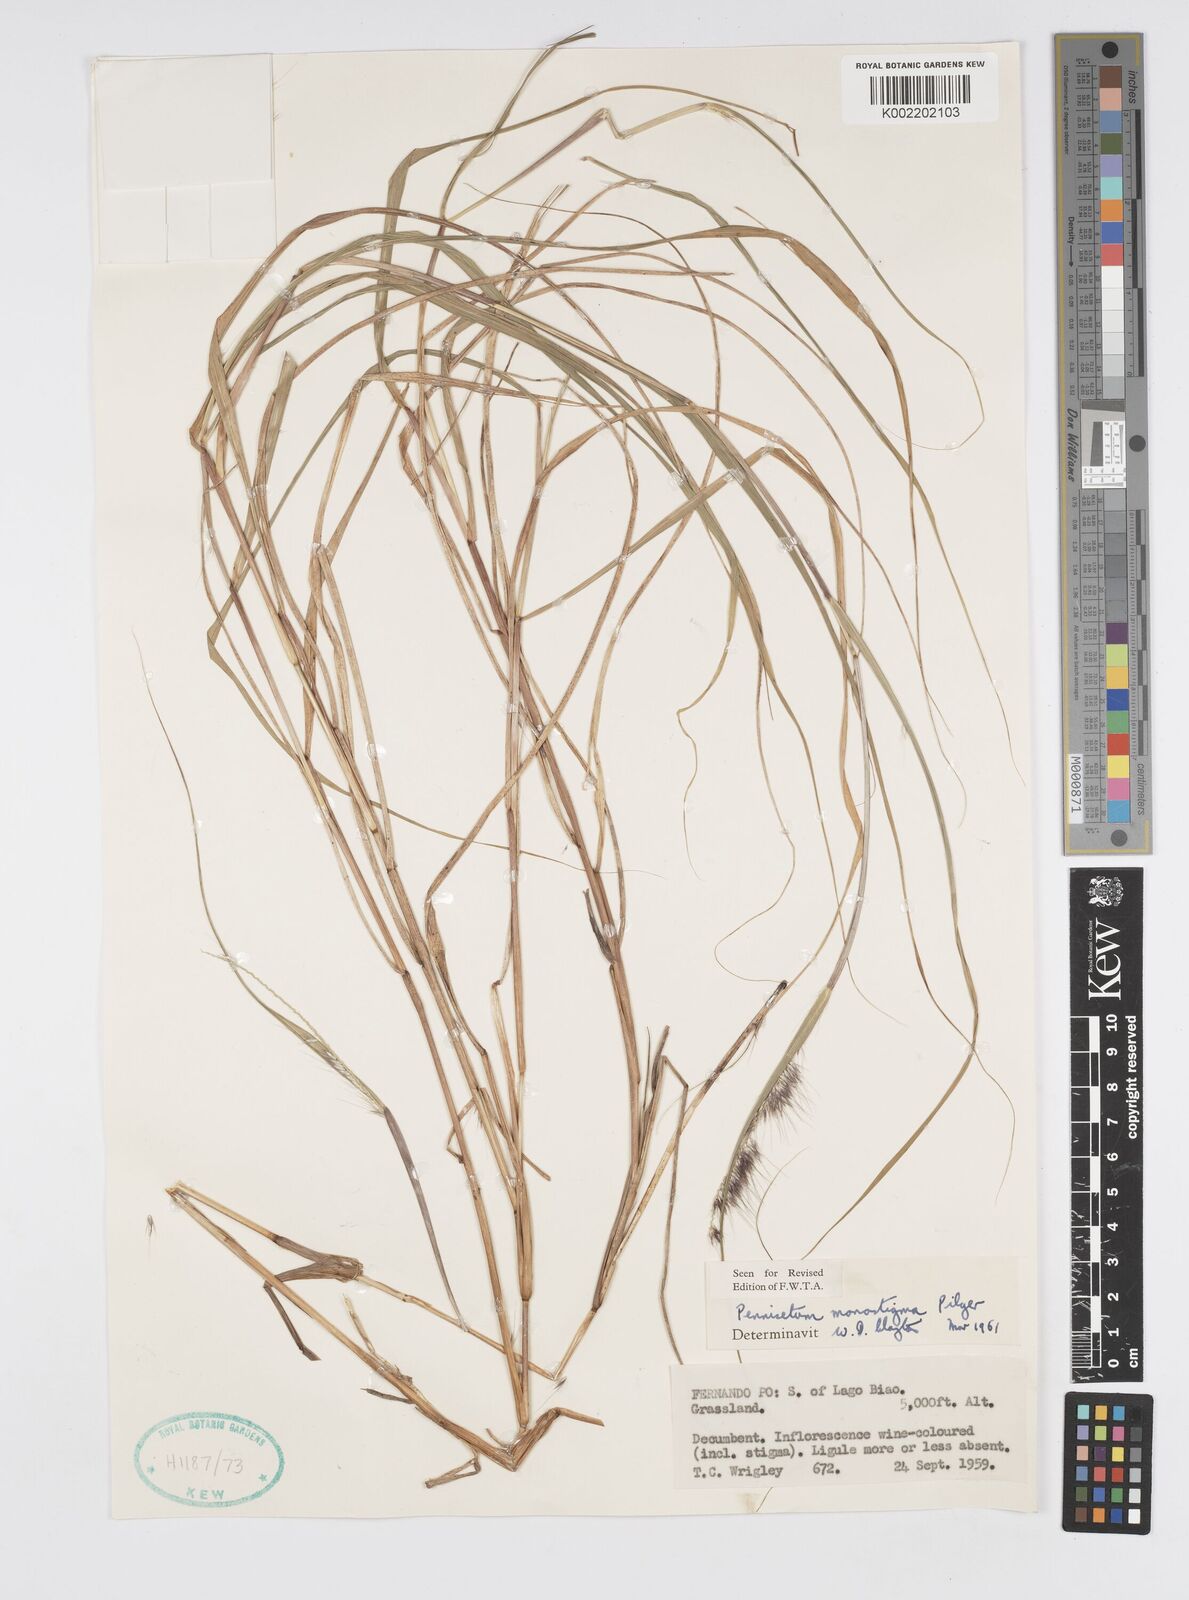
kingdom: Plantae
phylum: Tracheophyta
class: Liliopsida
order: Poales
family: Poaceae
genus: Cenchrus
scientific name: Cenchrus monostigma
